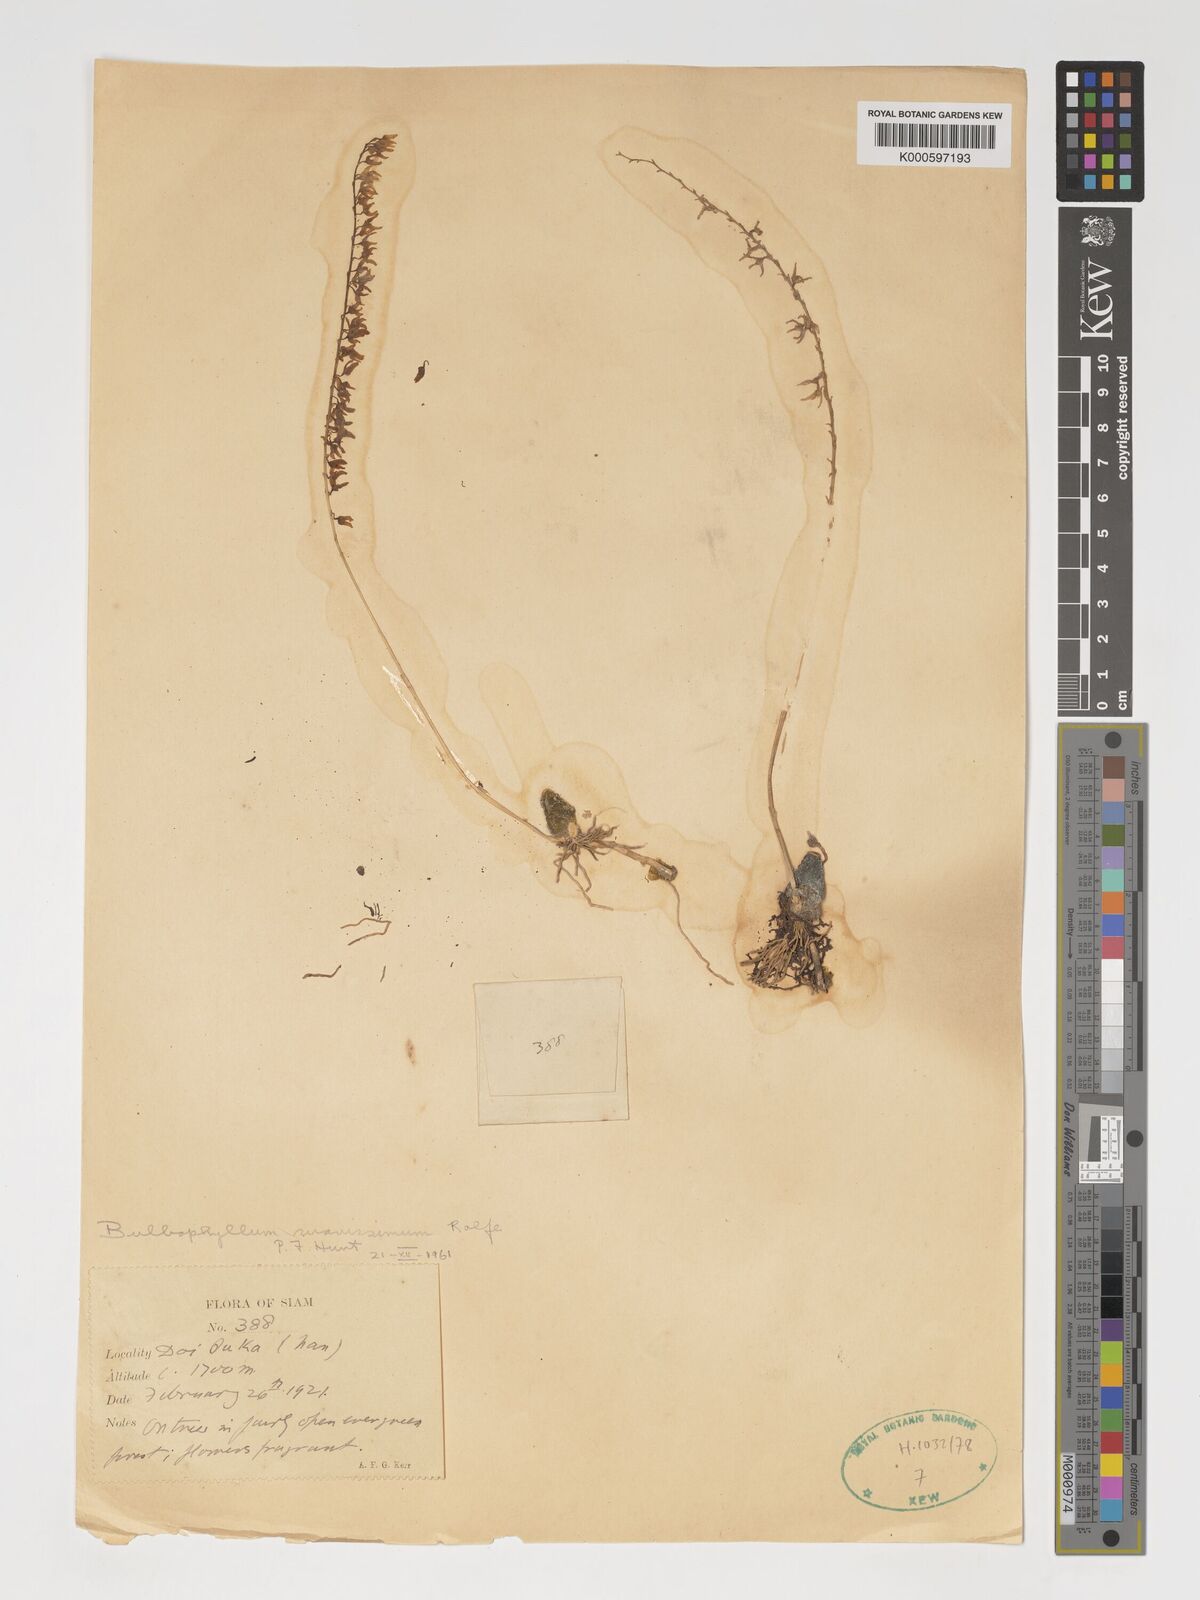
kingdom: Plantae
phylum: Tracheophyta
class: Liliopsida
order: Asparagales
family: Orchidaceae
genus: Bulbophyllum
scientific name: Bulbophyllum suavissimum
